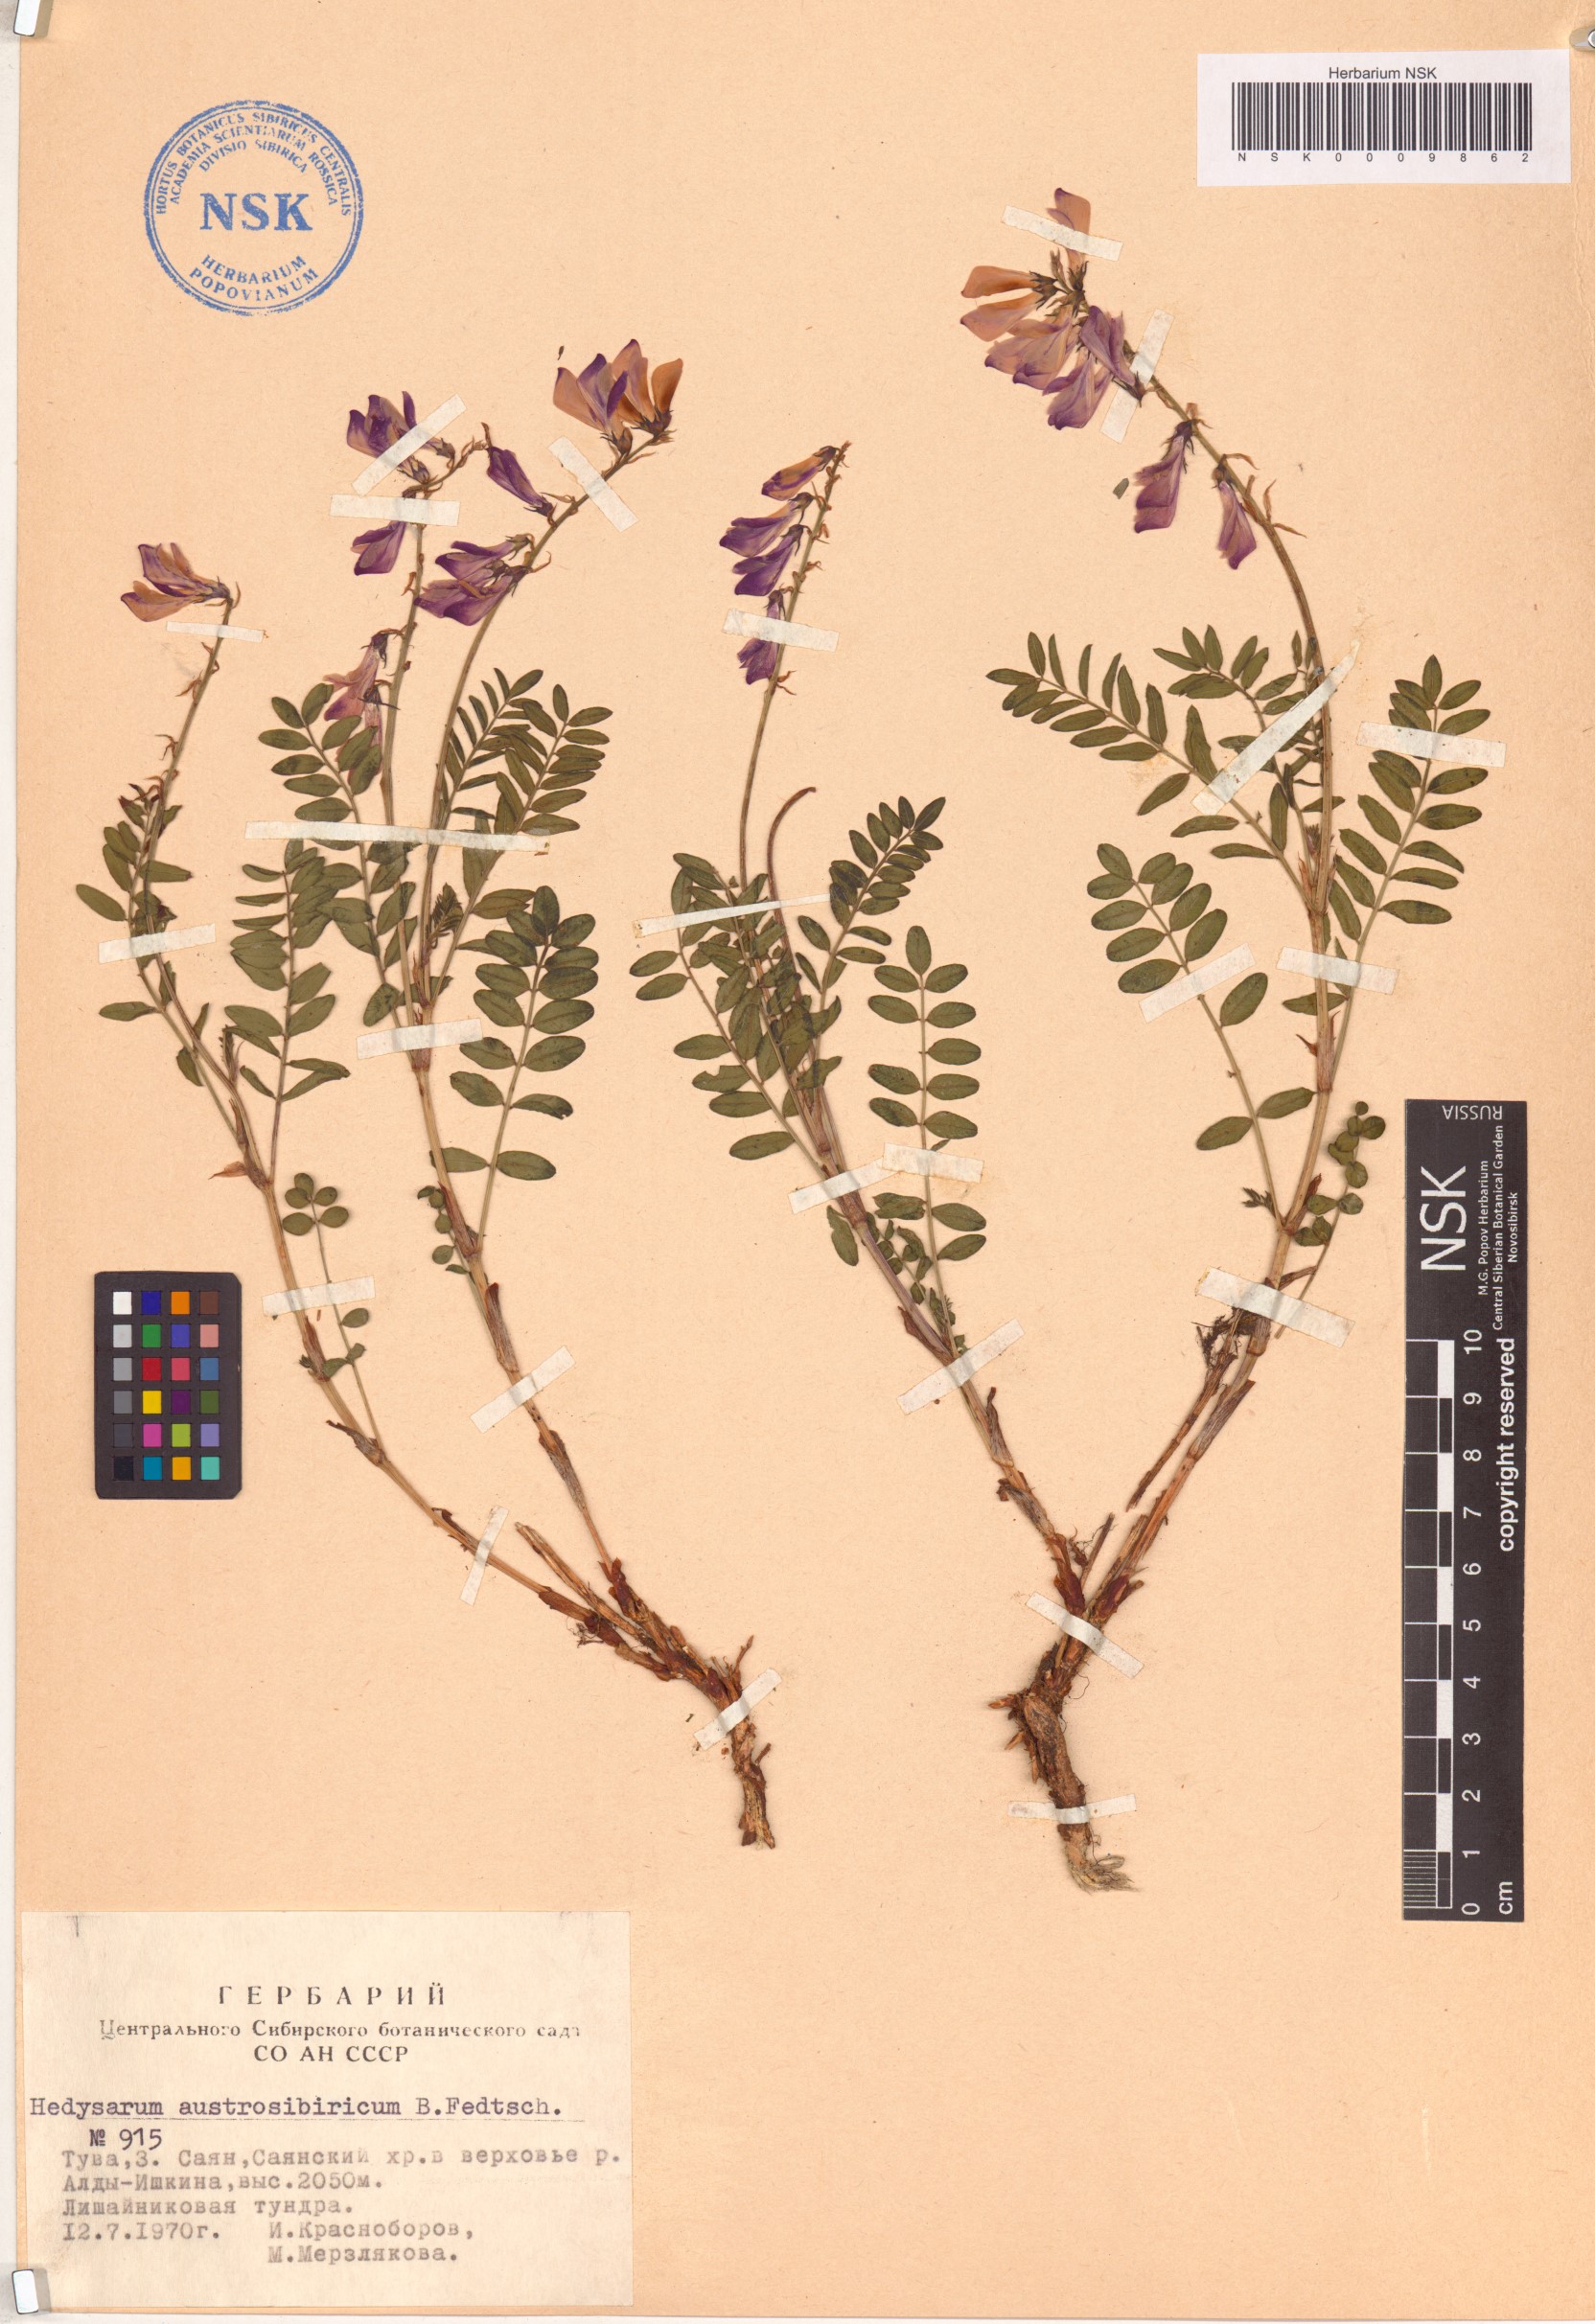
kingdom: Plantae
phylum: Tracheophyta
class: Magnoliopsida
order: Fabales
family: Fabaceae
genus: Hedysarum
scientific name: Hedysarum neglectum
